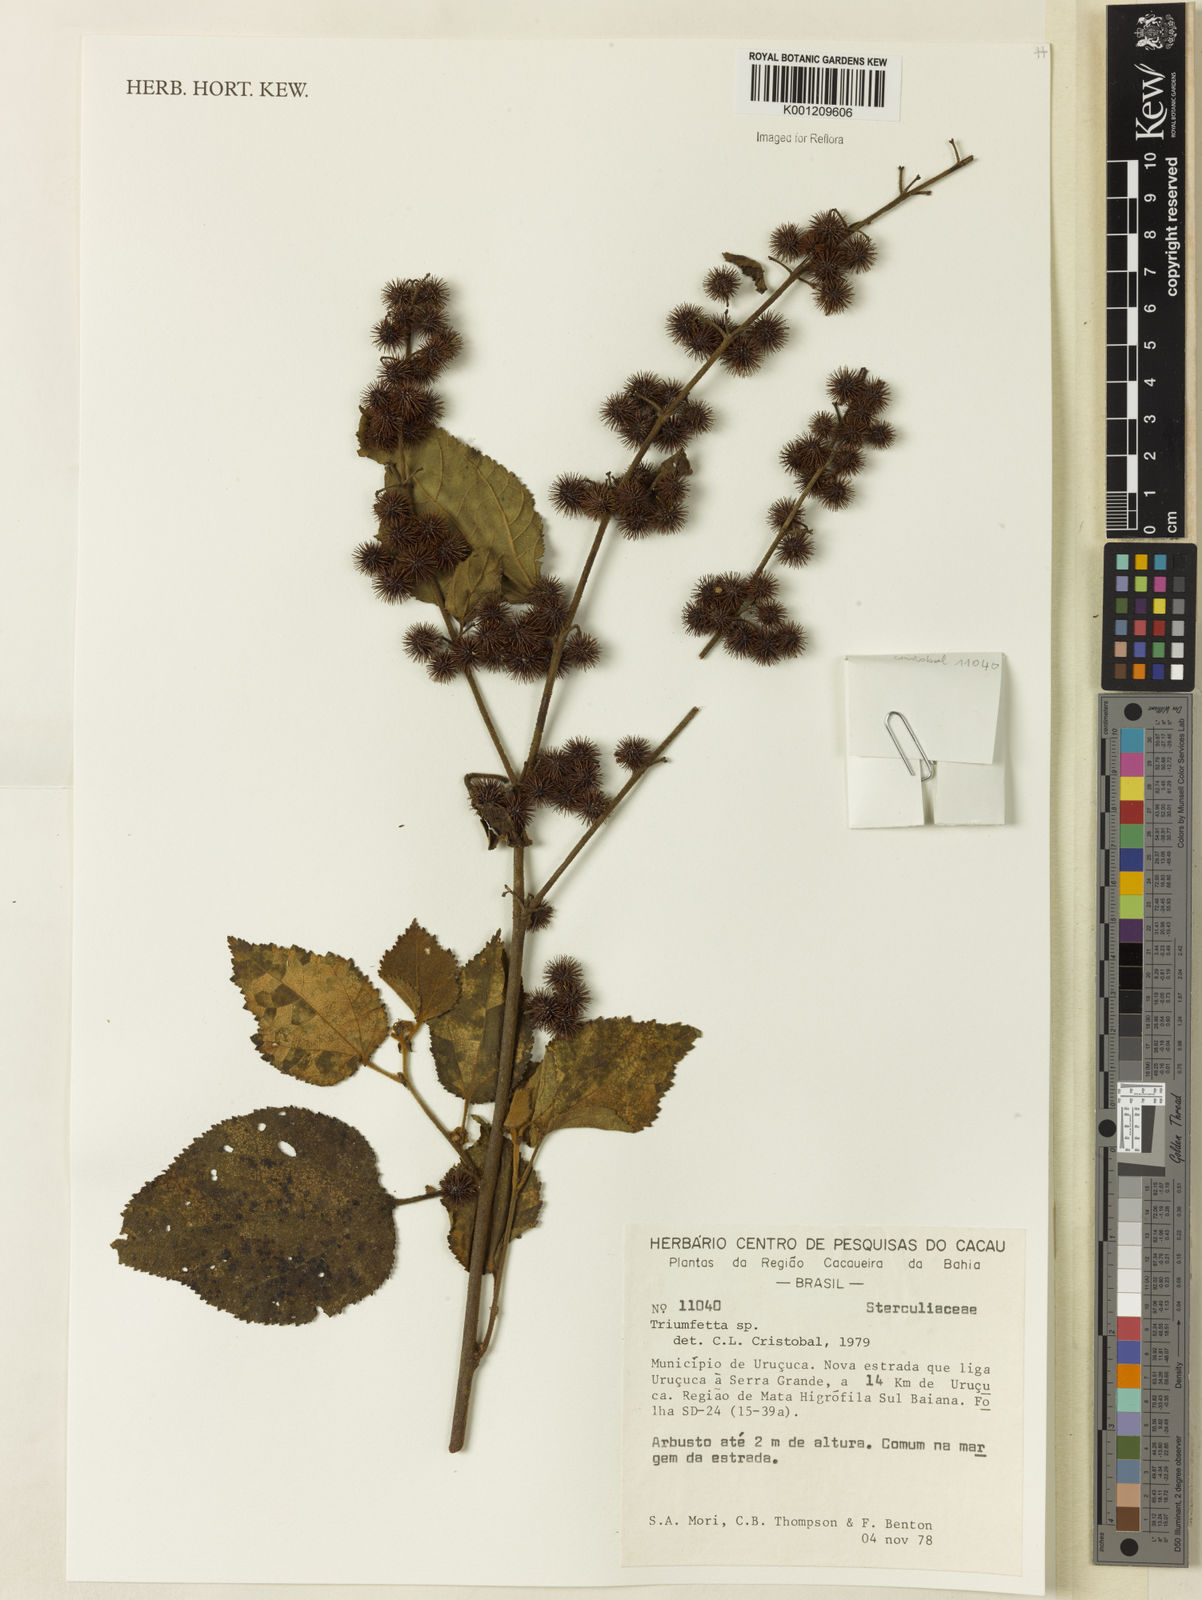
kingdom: Plantae
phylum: Tracheophyta
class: Magnoliopsida
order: Malvales
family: Malvaceae
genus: Triumfetta
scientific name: Triumfetta
